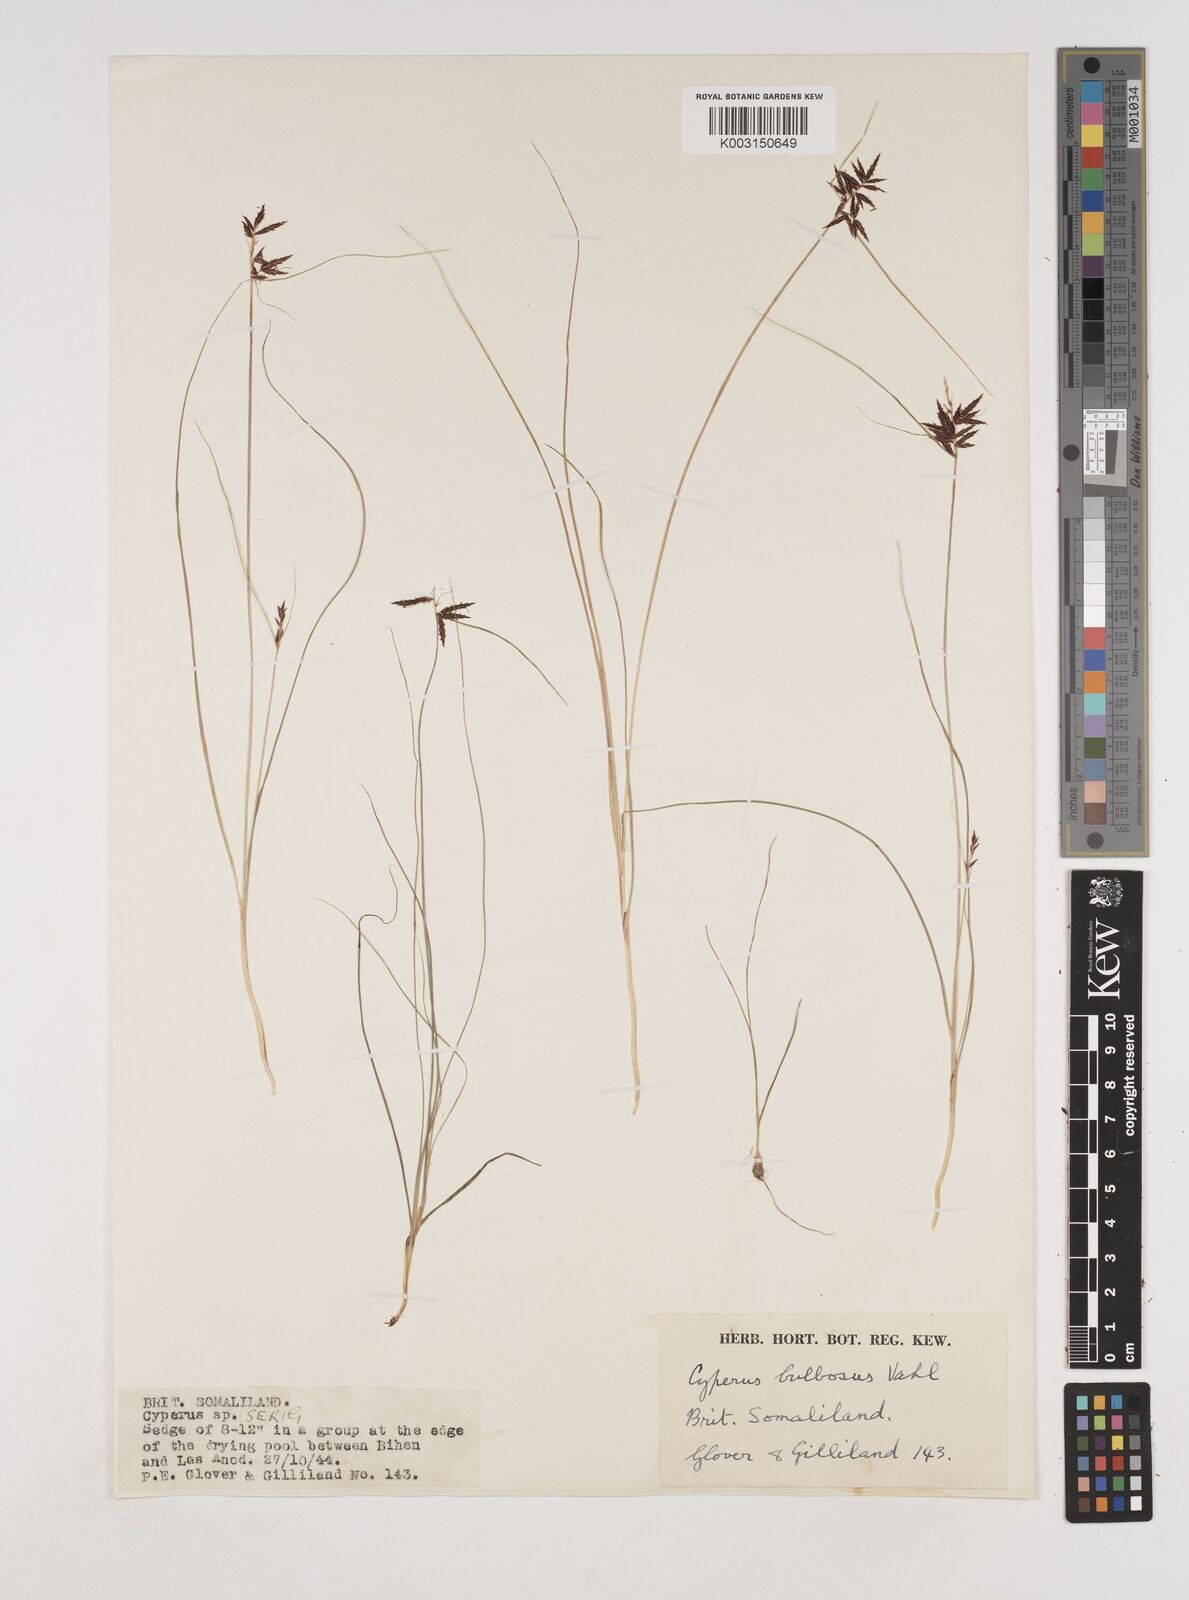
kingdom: Plantae
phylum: Tracheophyta
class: Liliopsida
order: Poales
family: Cyperaceae
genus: Cyperus
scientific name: Cyperus bulbosus
